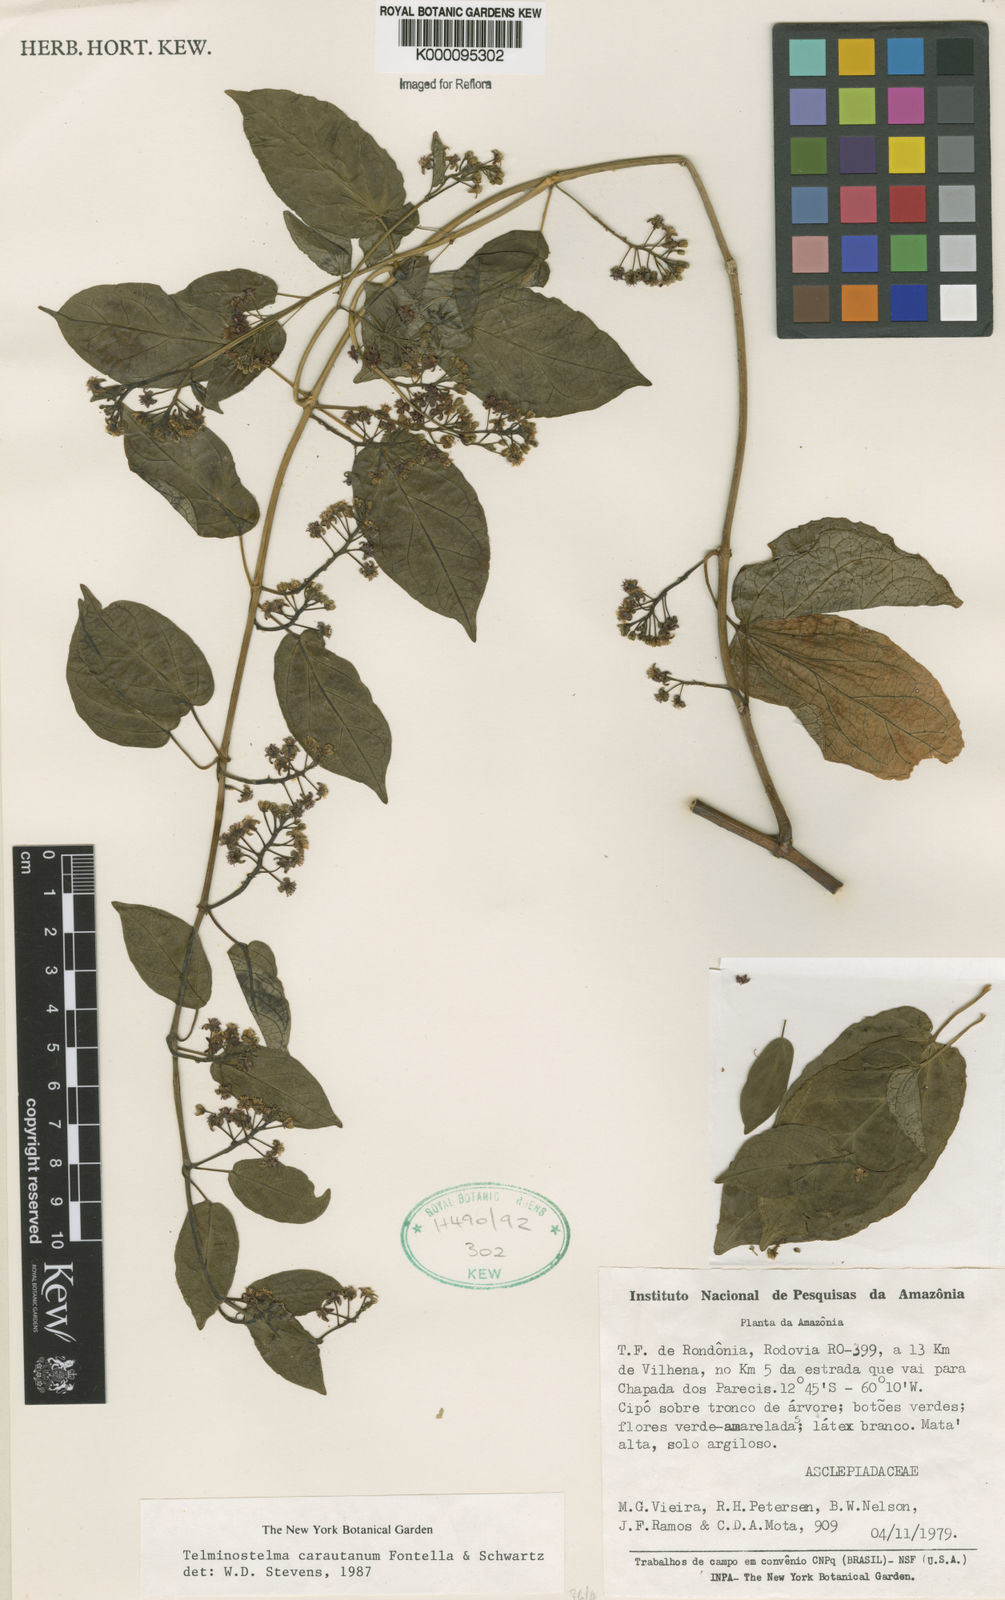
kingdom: Plantae
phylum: Tracheophyta
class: Magnoliopsida
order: Gentianales
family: Apocynaceae
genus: Cynanchum
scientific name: Cynanchum carautanum
